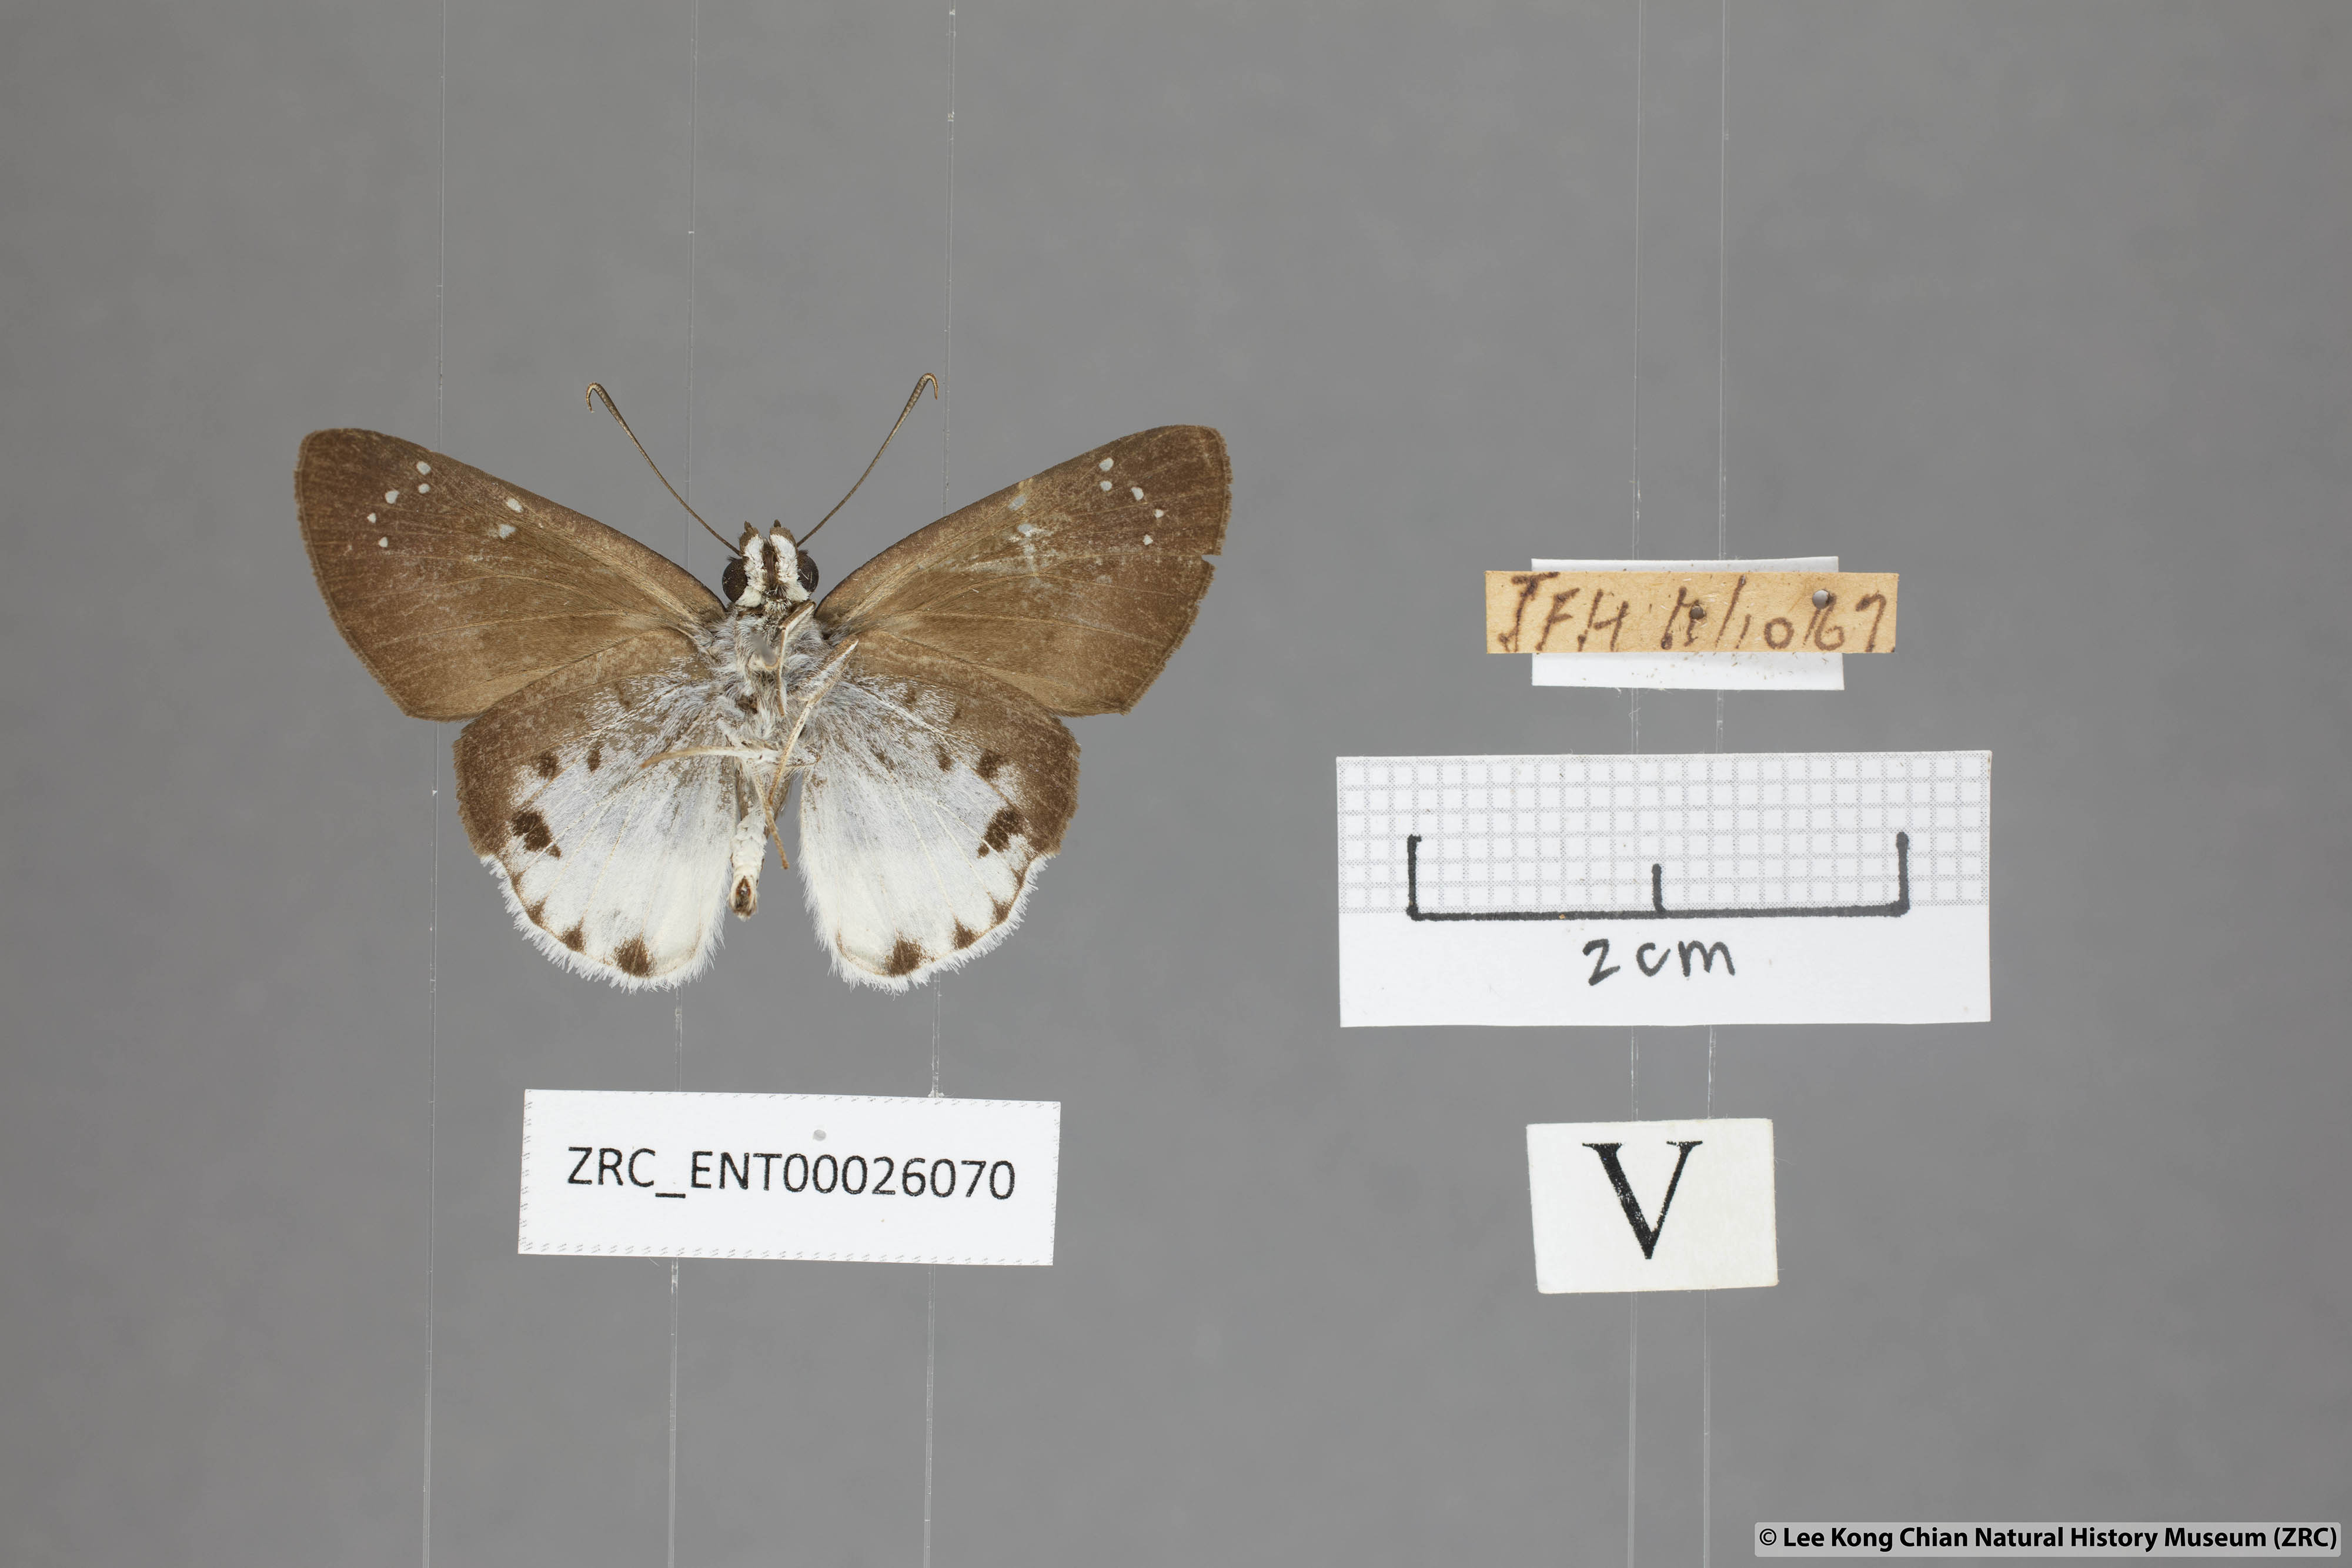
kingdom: Animalia
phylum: Arthropoda
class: Insecta
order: Lepidoptera
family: Hesperiidae
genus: Tagiades
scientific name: Tagiades waterstradti
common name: Waterstradt snow flat
